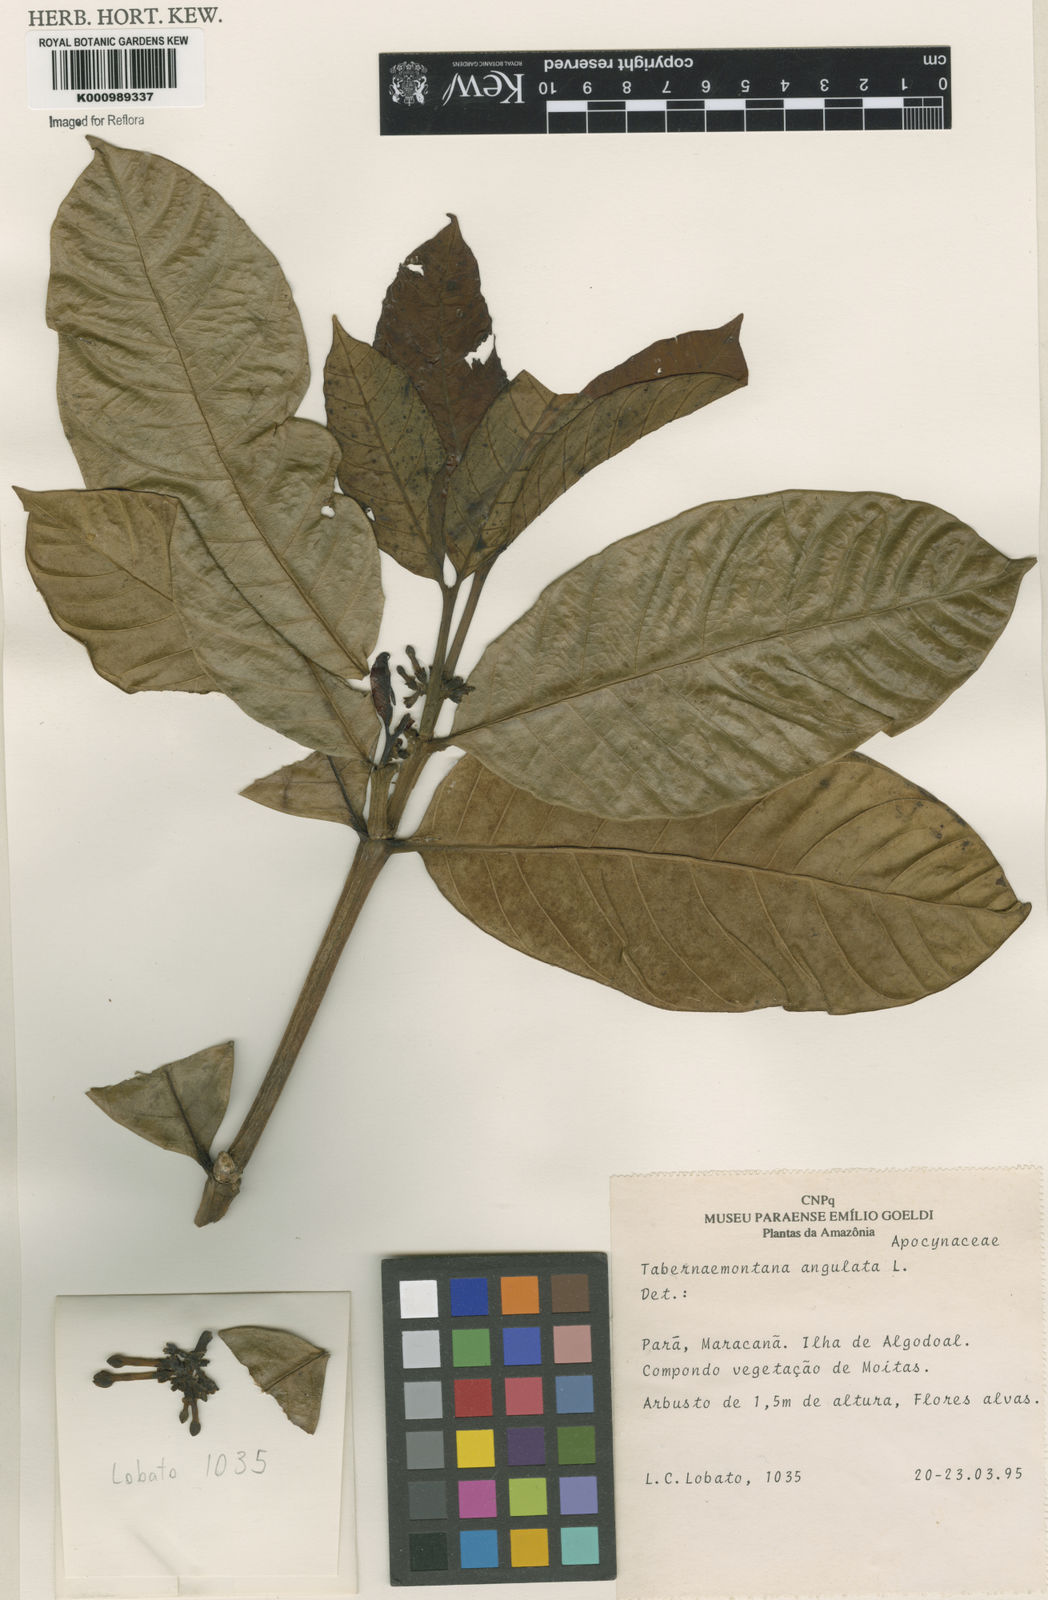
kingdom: Plantae
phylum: Tracheophyta
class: Magnoliopsida
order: Gentianales
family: Apocynaceae
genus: Tabernaemontana
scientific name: Tabernaemontana
